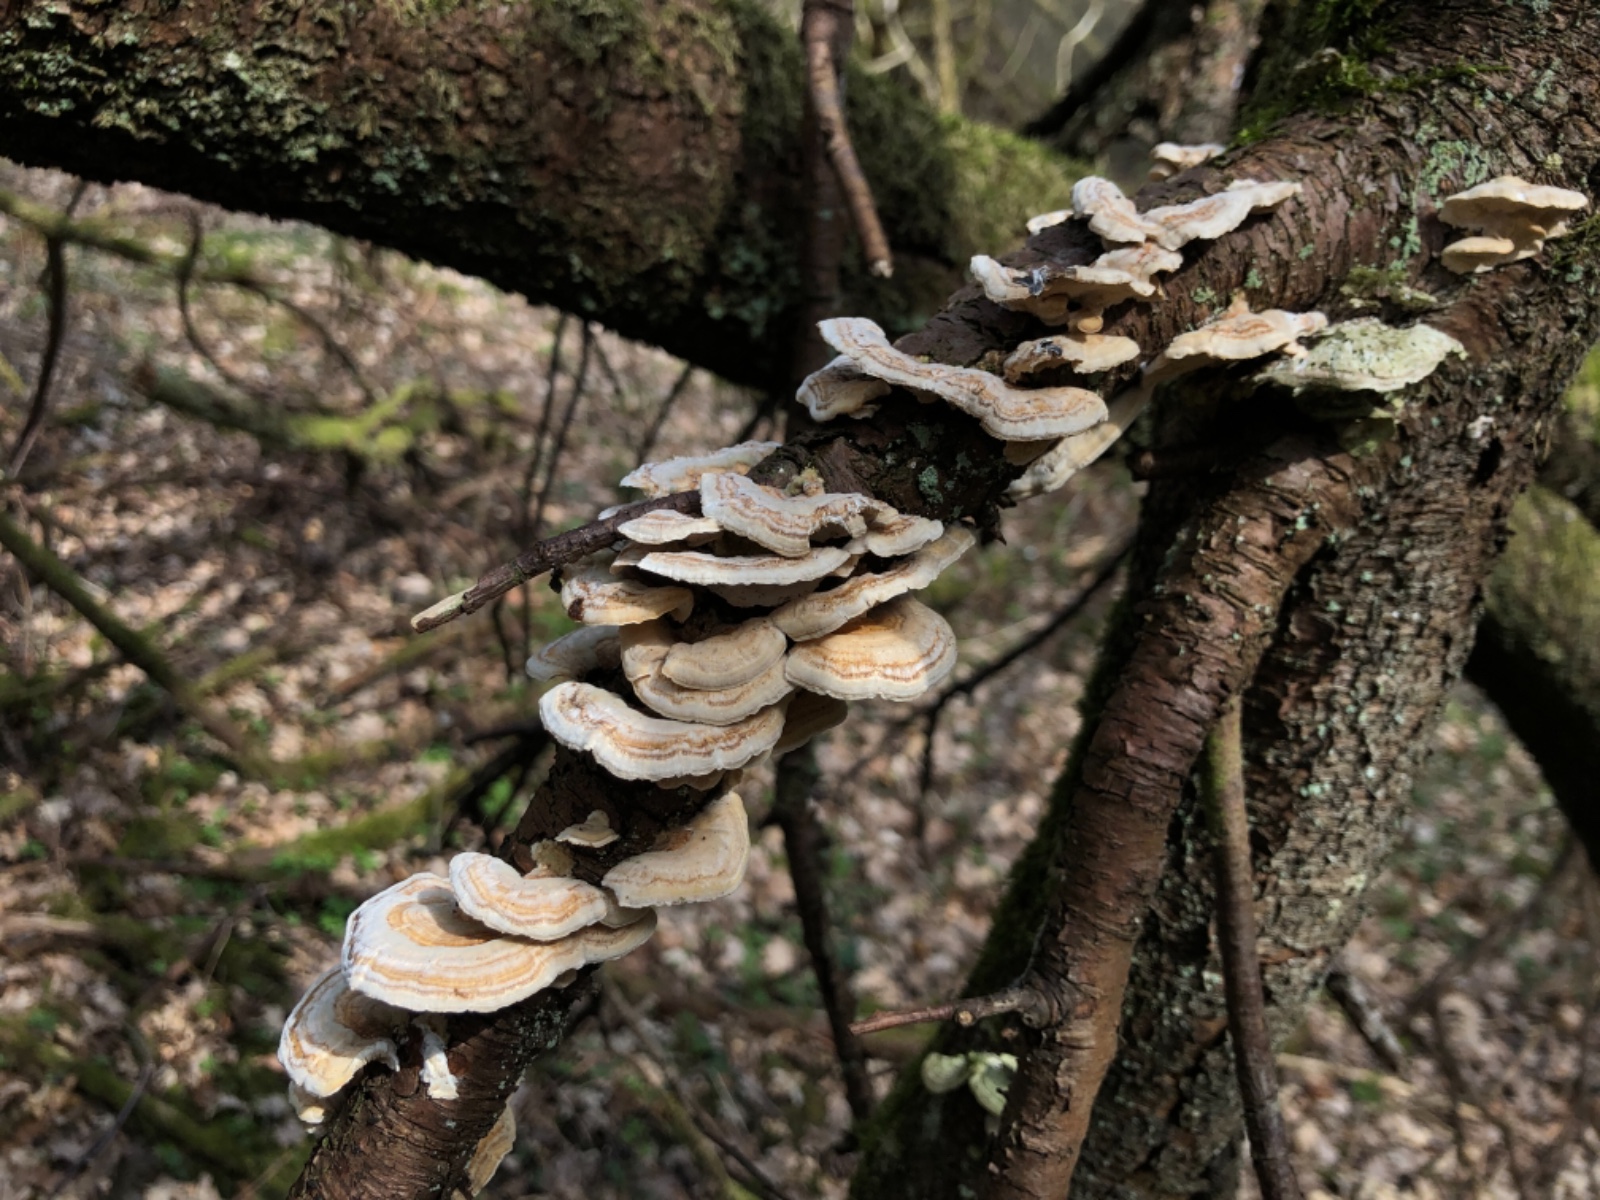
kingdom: Fungi
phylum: Basidiomycota
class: Agaricomycetes
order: Polyporales
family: Polyporaceae
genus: Trametes
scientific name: Trametes versicolor
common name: broget læderporesvamp
